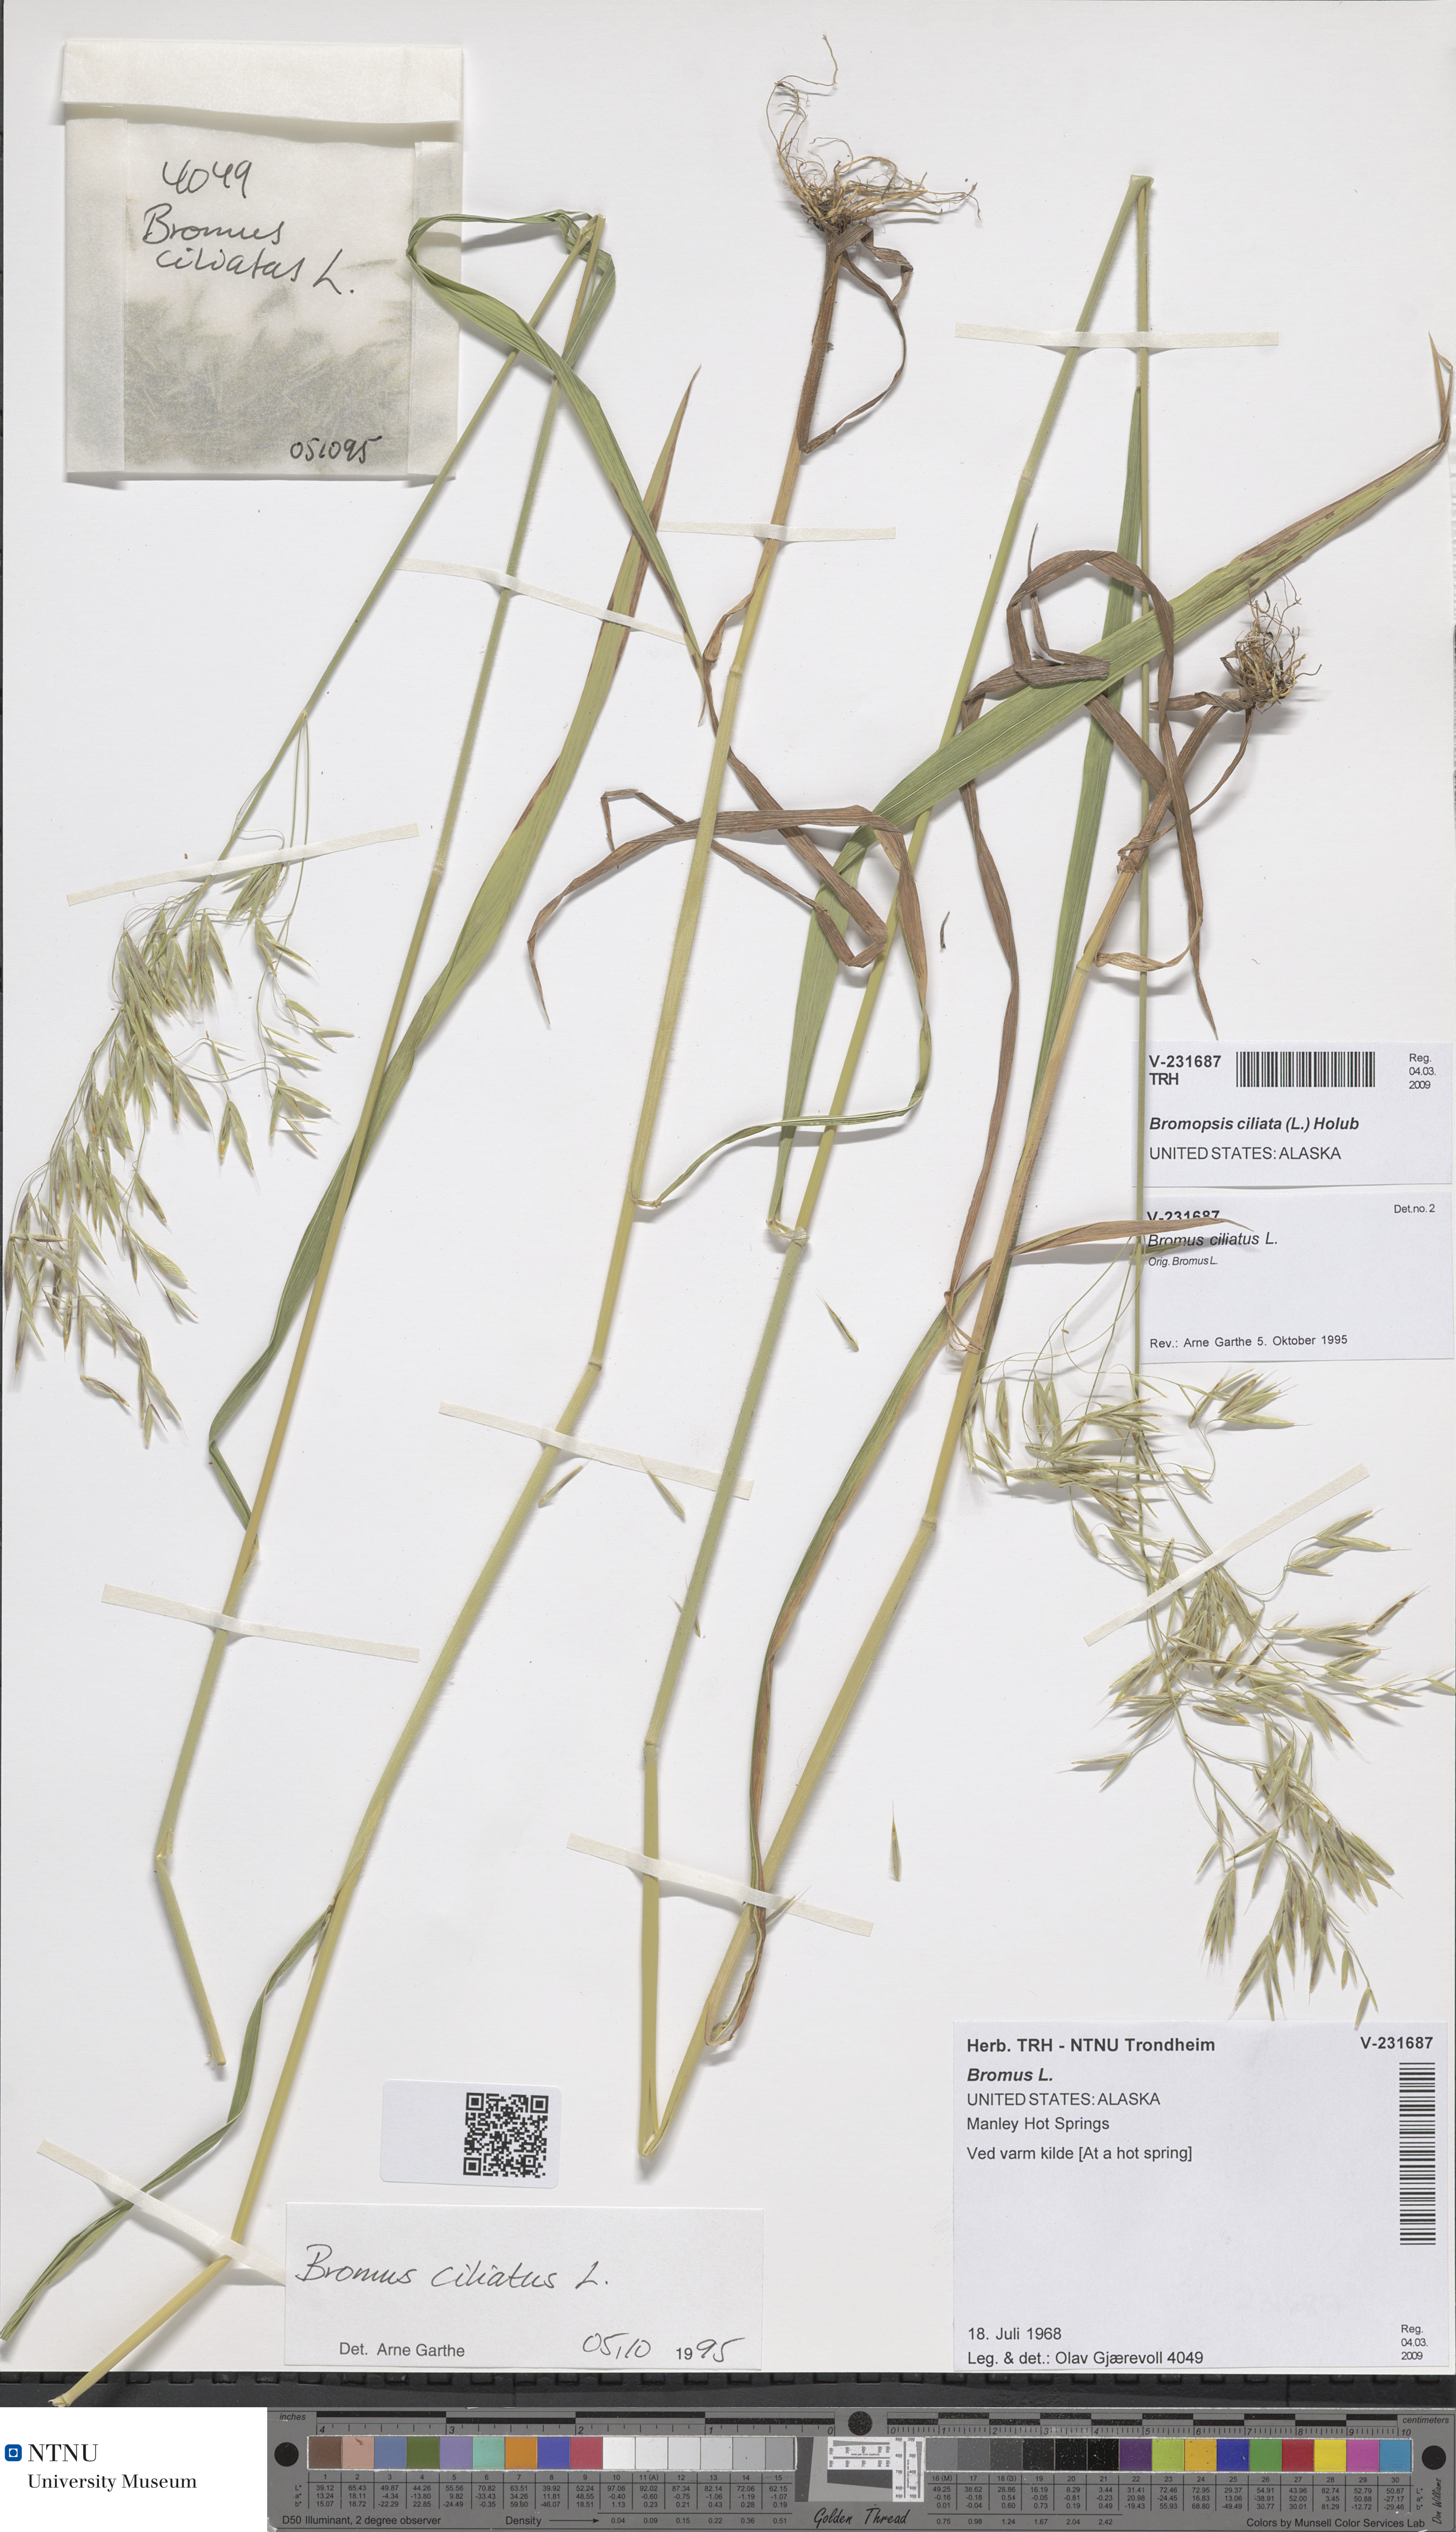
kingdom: Plantae
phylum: Tracheophyta
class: Liliopsida
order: Poales
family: Poaceae
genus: Bromus
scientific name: Bromus ciliatus
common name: Fringe brome
